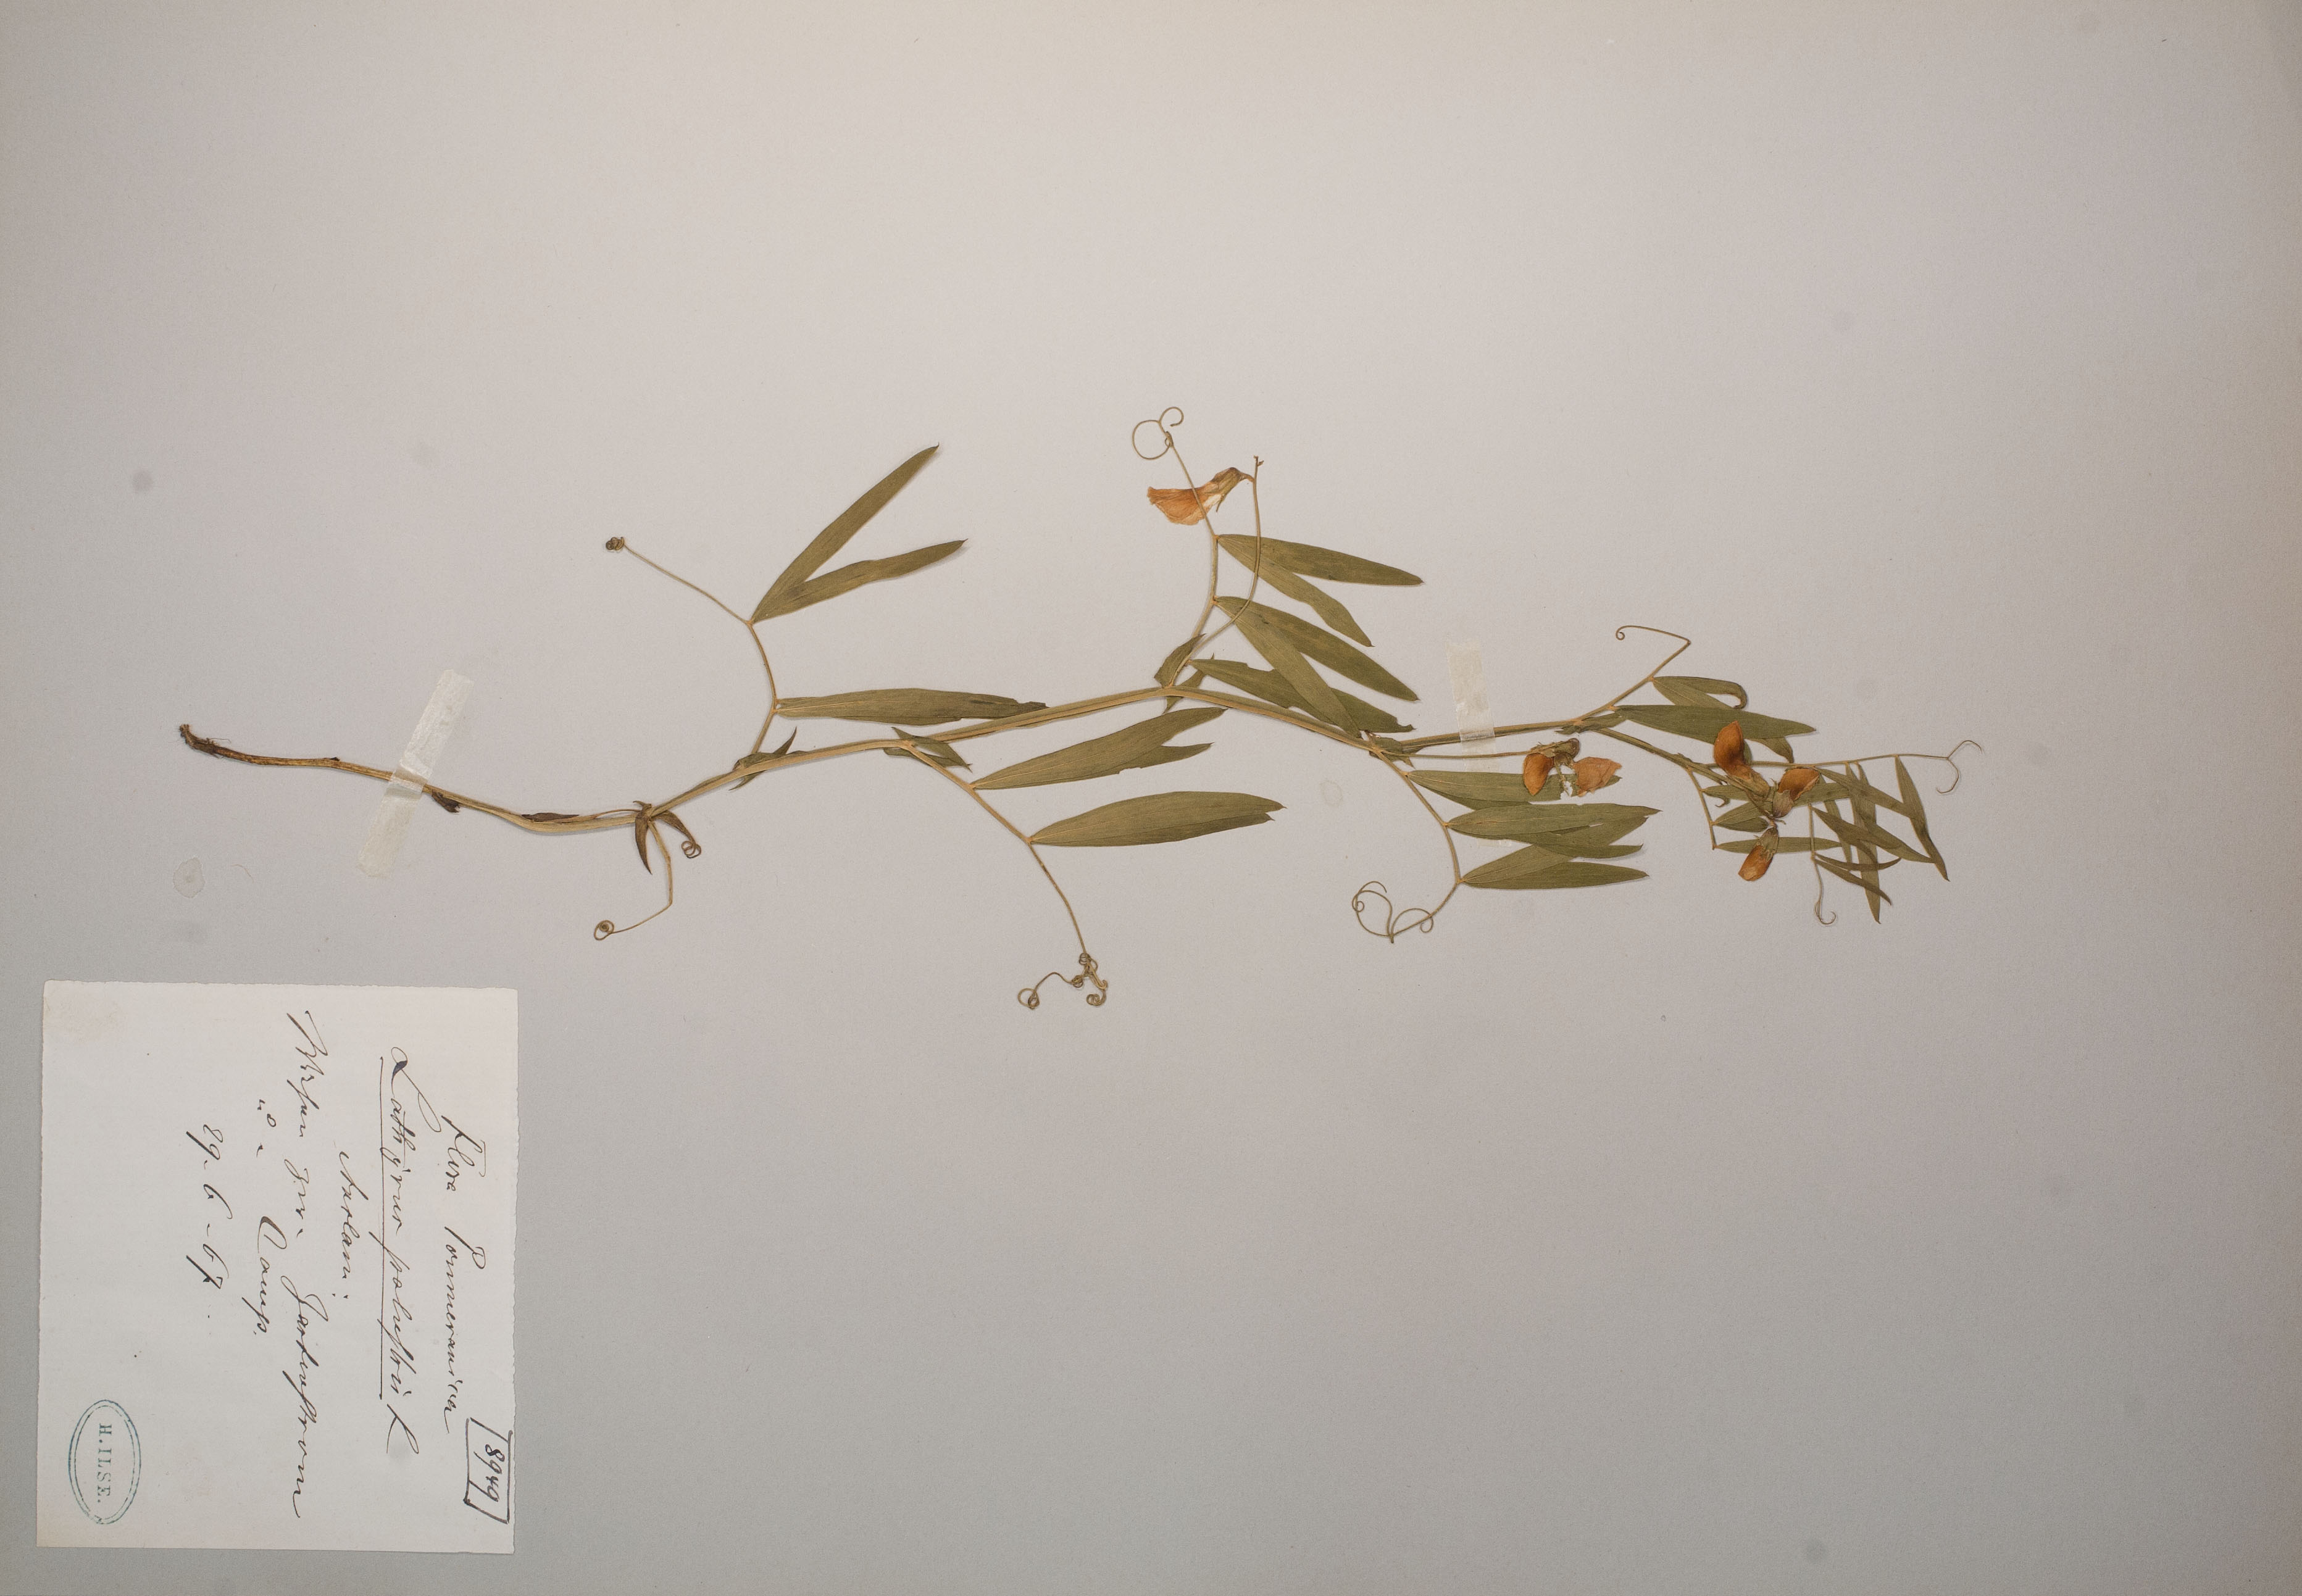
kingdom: Plantae
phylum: Tracheophyta
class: Magnoliopsida
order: Fabales
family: Fabaceae
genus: Lathyrus
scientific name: Lathyrus palustris
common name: Marsh pea
